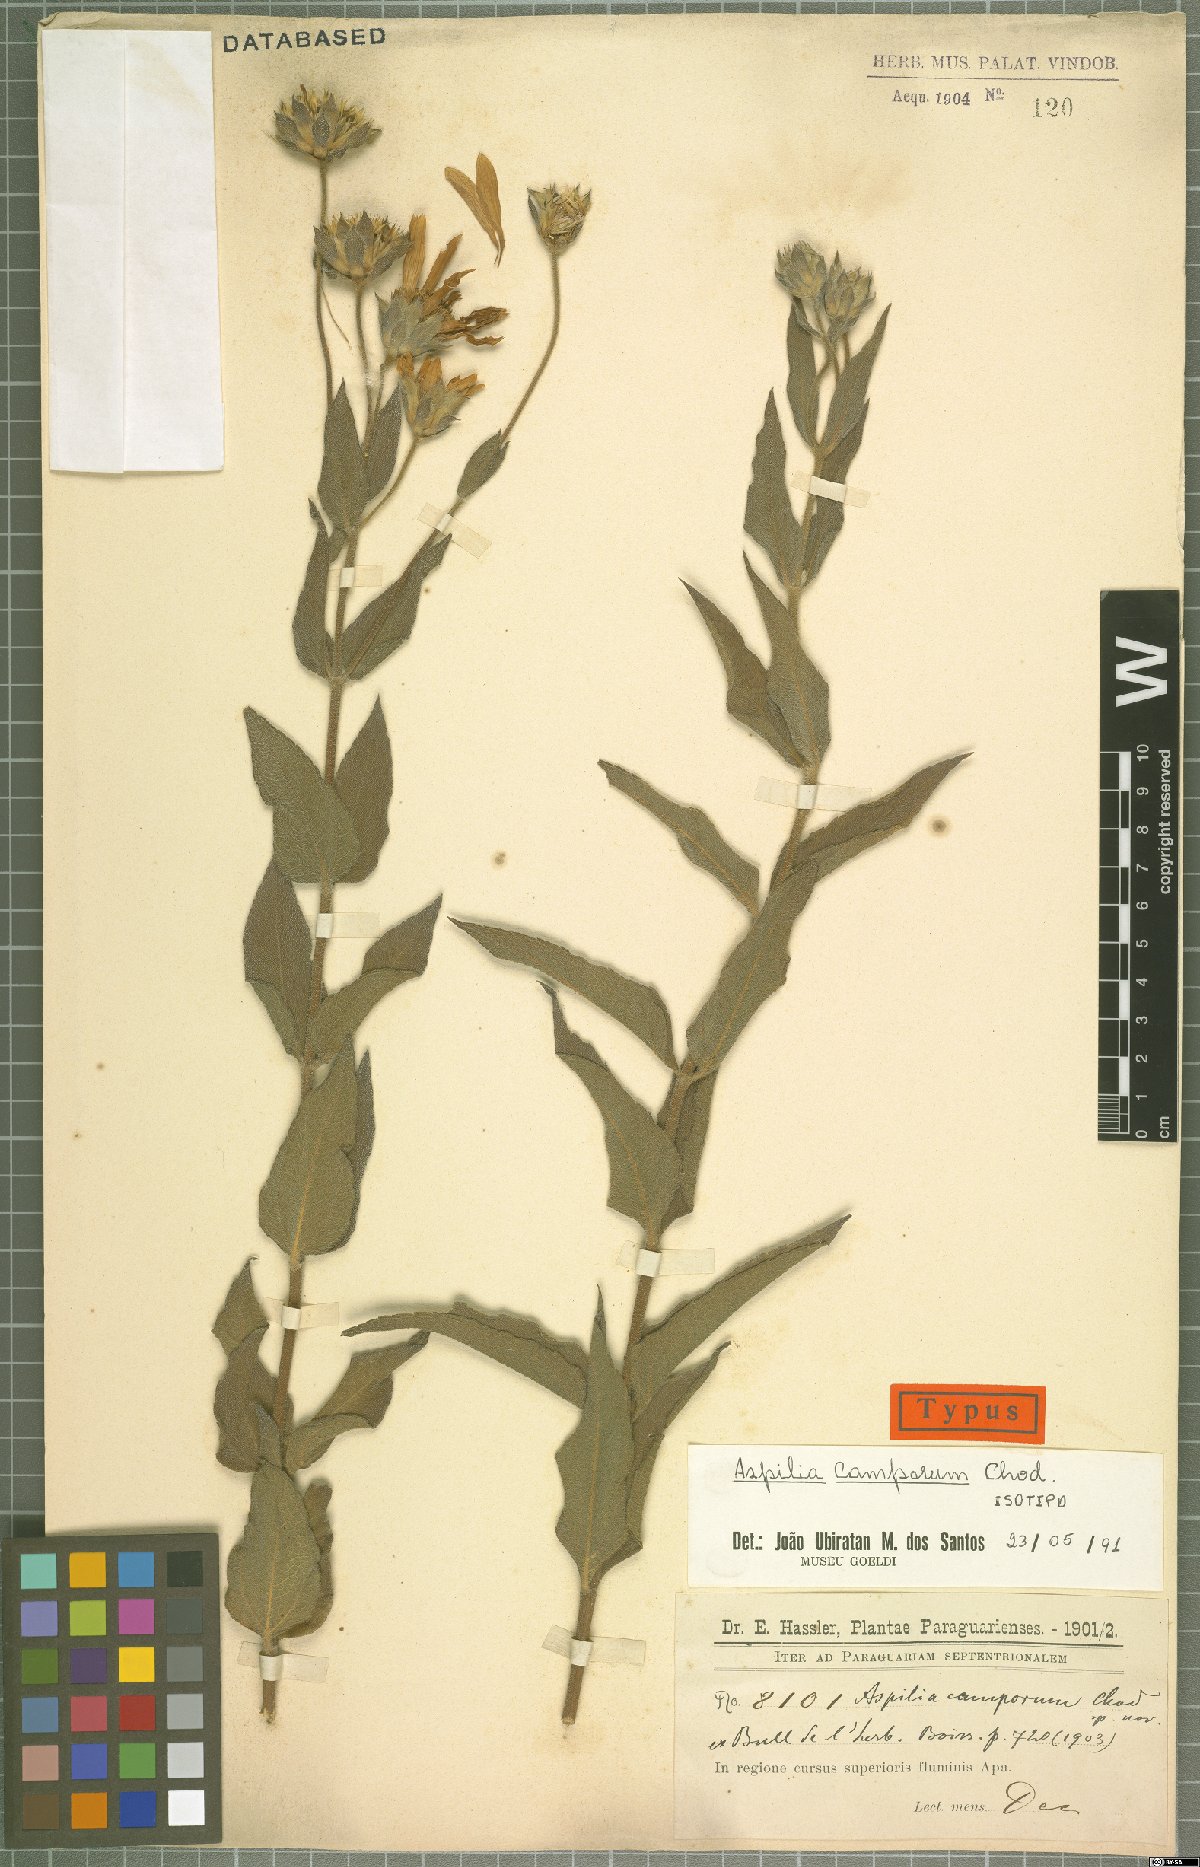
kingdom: Plantae
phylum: Tracheophyta
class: Magnoliopsida
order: Asterales
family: Asteraceae
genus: Wedelia
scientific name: Wedelia camporum
